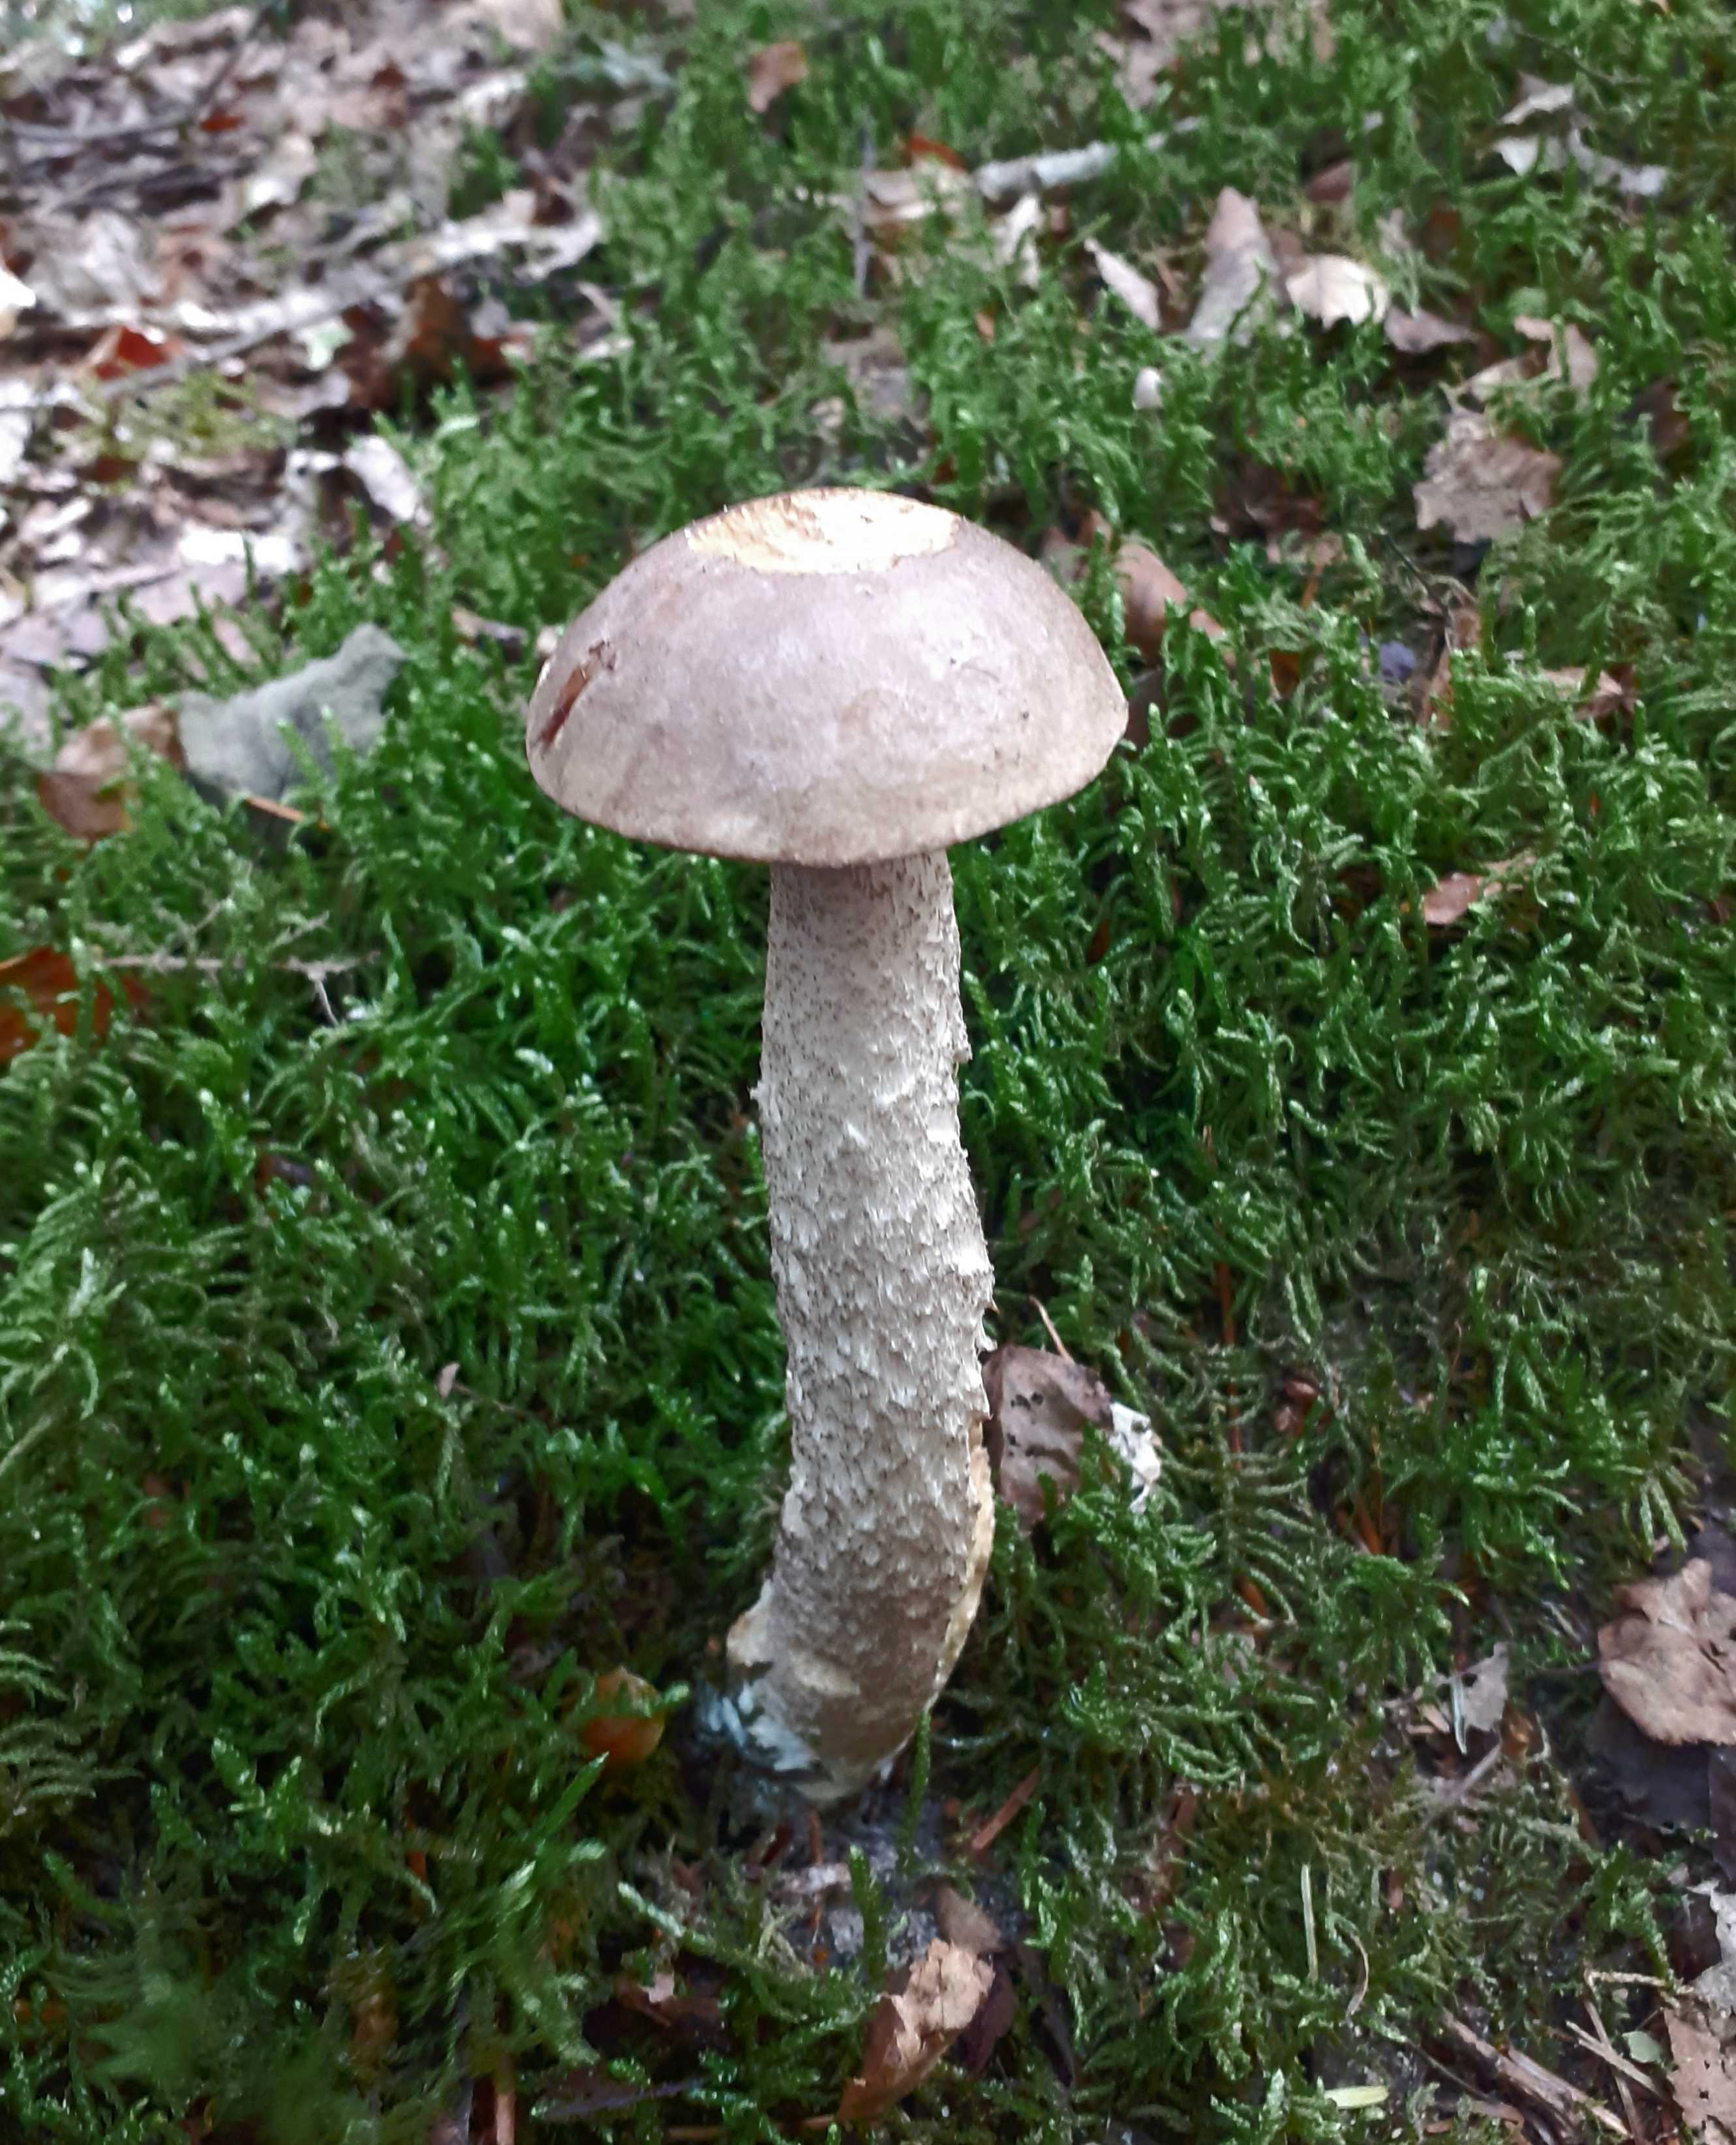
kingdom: Fungi
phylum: Basidiomycota
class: Agaricomycetes
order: Boletales
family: Boletaceae
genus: Leccinum
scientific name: Leccinum scabrum
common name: brun skælrørhat
